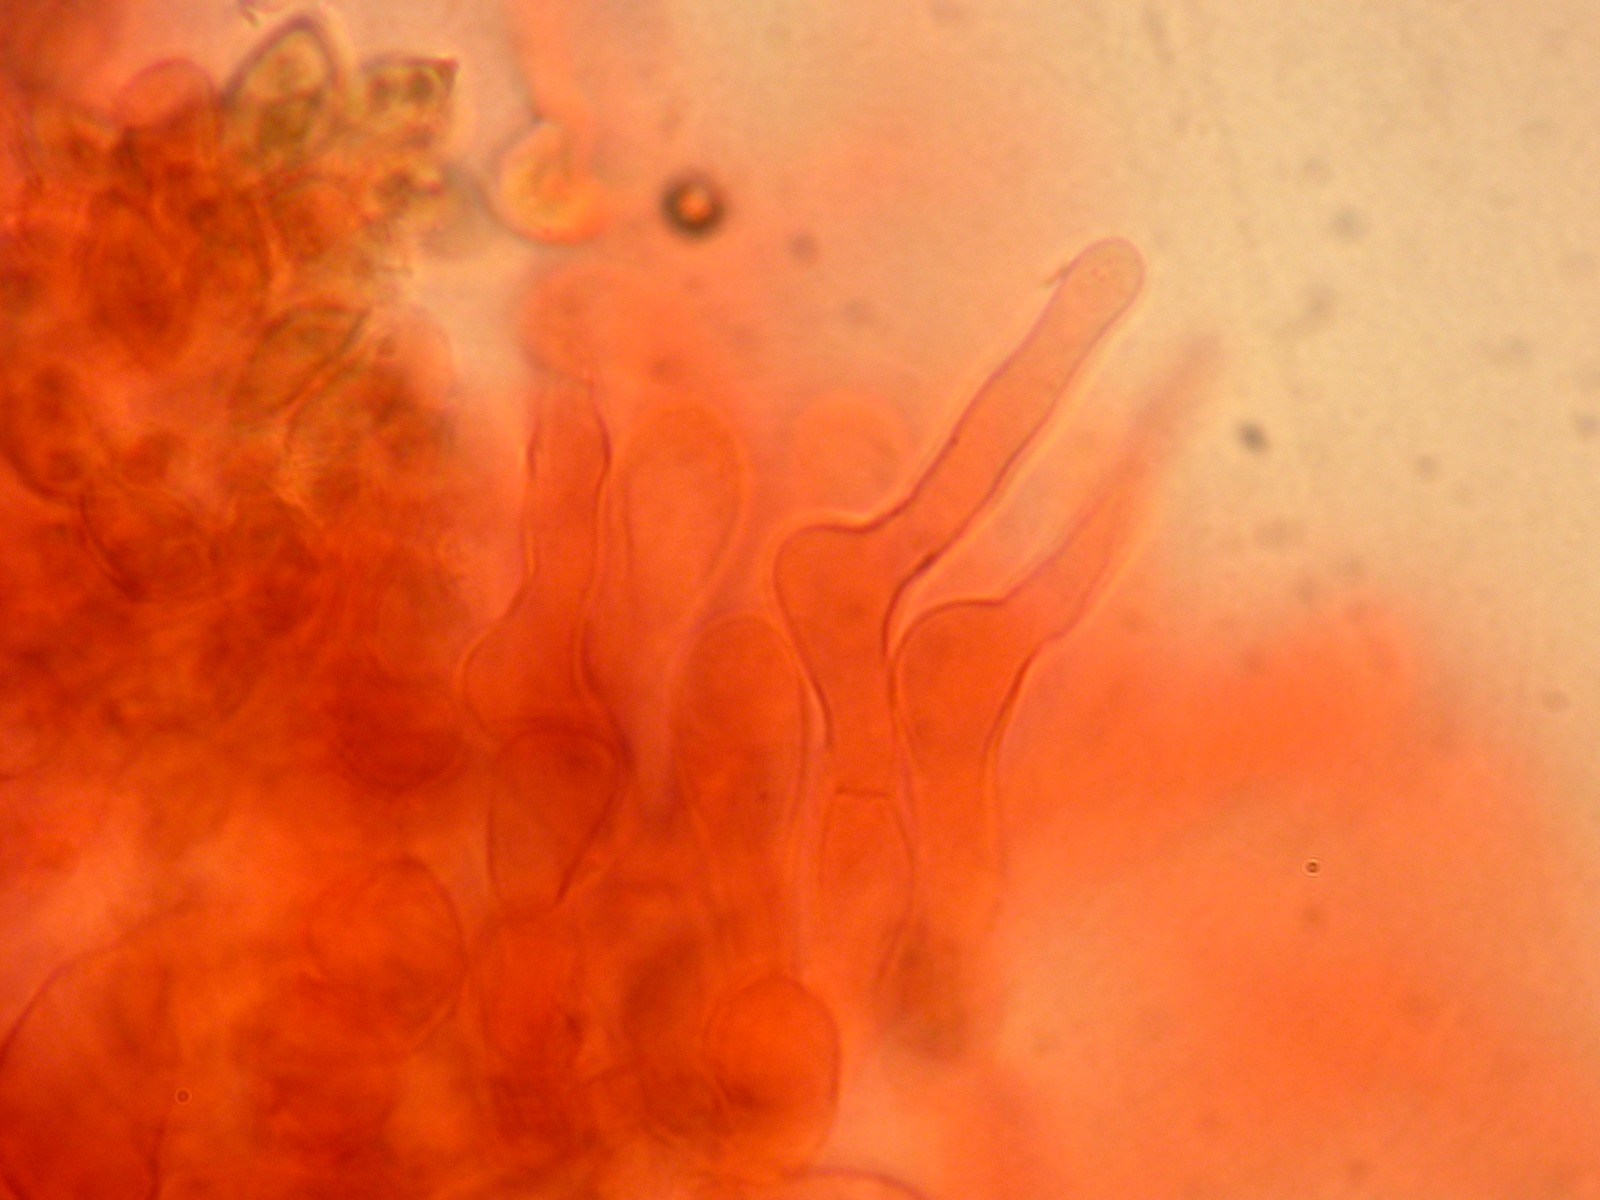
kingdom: Fungi
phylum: Basidiomycota
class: Agaricomycetes
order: Agaricales
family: Hymenogastraceae
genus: Galerina
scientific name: Galerina hypnorum
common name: mos-hjelmhat
